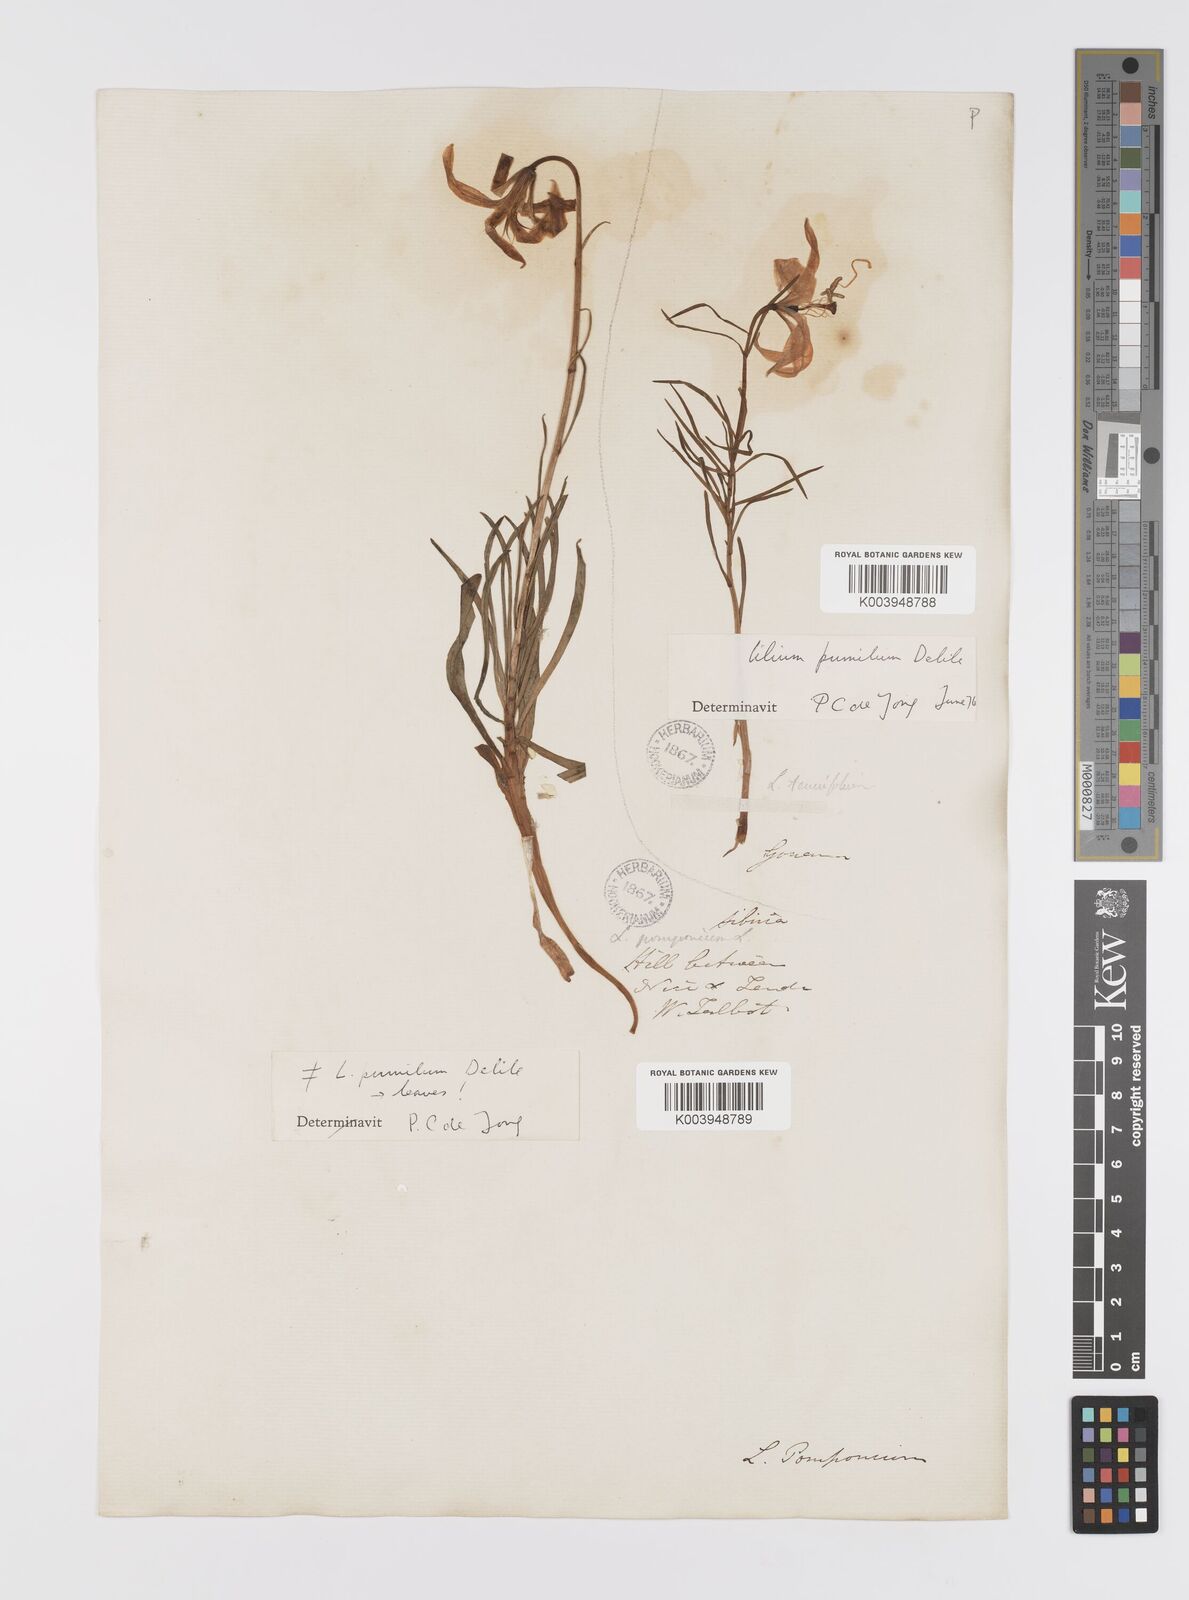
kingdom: Plantae
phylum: Tracheophyta
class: Liliopsida
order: Liliales
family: Liliaceae
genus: Lilium
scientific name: Lilium pumilum
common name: Coral lily
